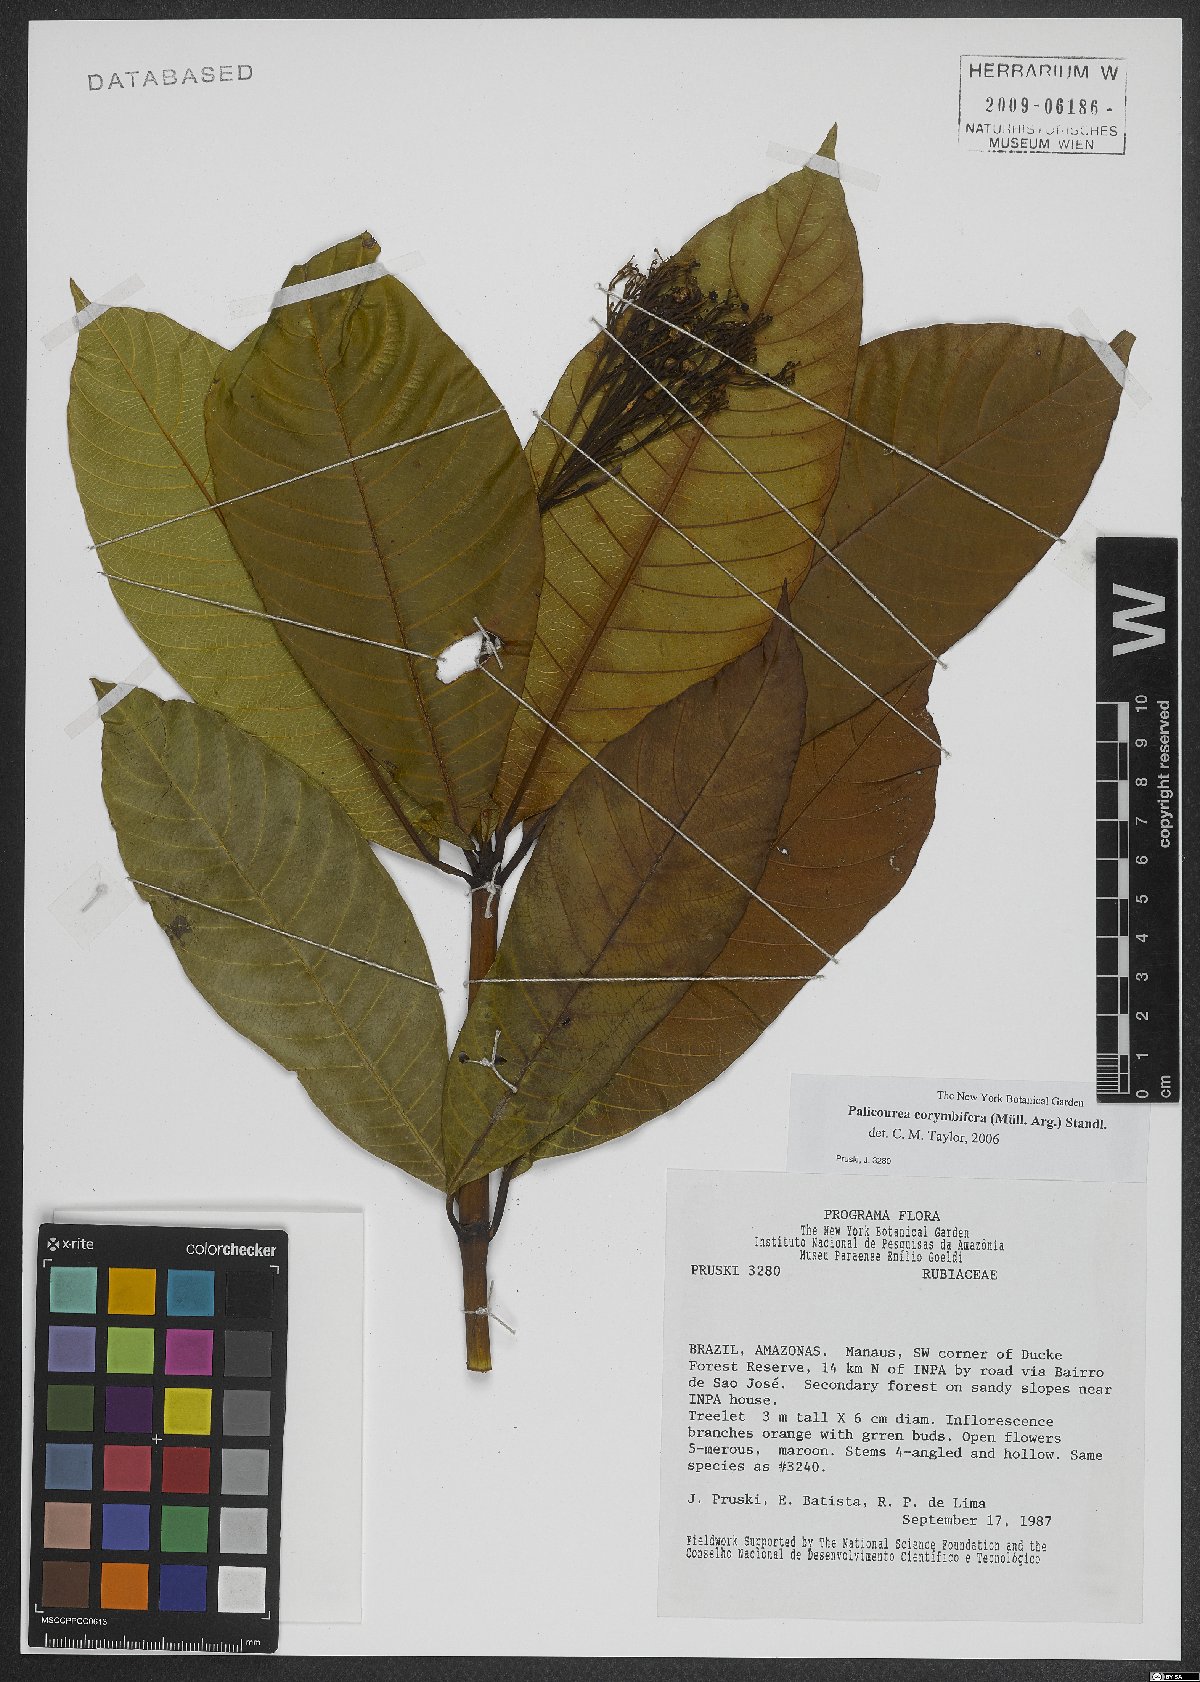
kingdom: Plantae
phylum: Tracheophyta
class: Magnoliopsida
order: Gentianales
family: Rubiaceae
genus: Palicourea
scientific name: Palicourea corymbifera
